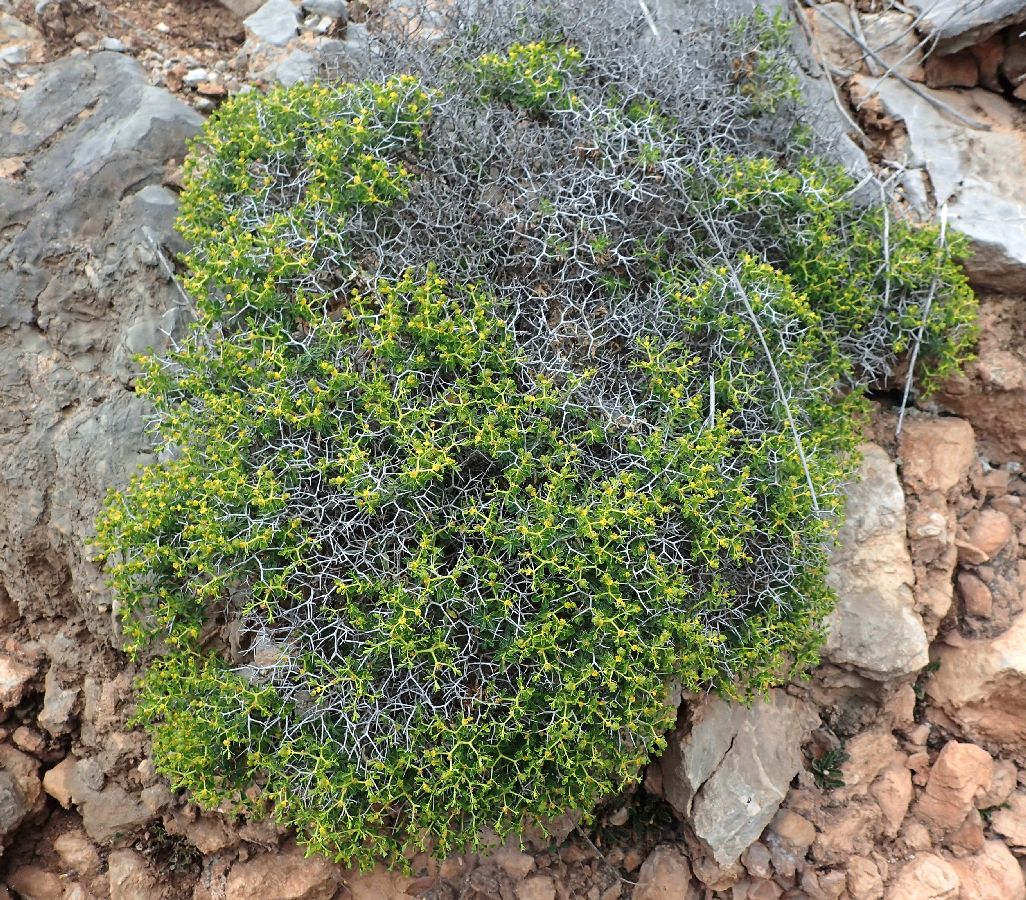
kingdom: Plantae
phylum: Tracheophyta
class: Magnoliopsida
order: Malpighiales
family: Euphorbiaceae
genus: Euphorbia
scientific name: Euphorbia acanthothamnos
